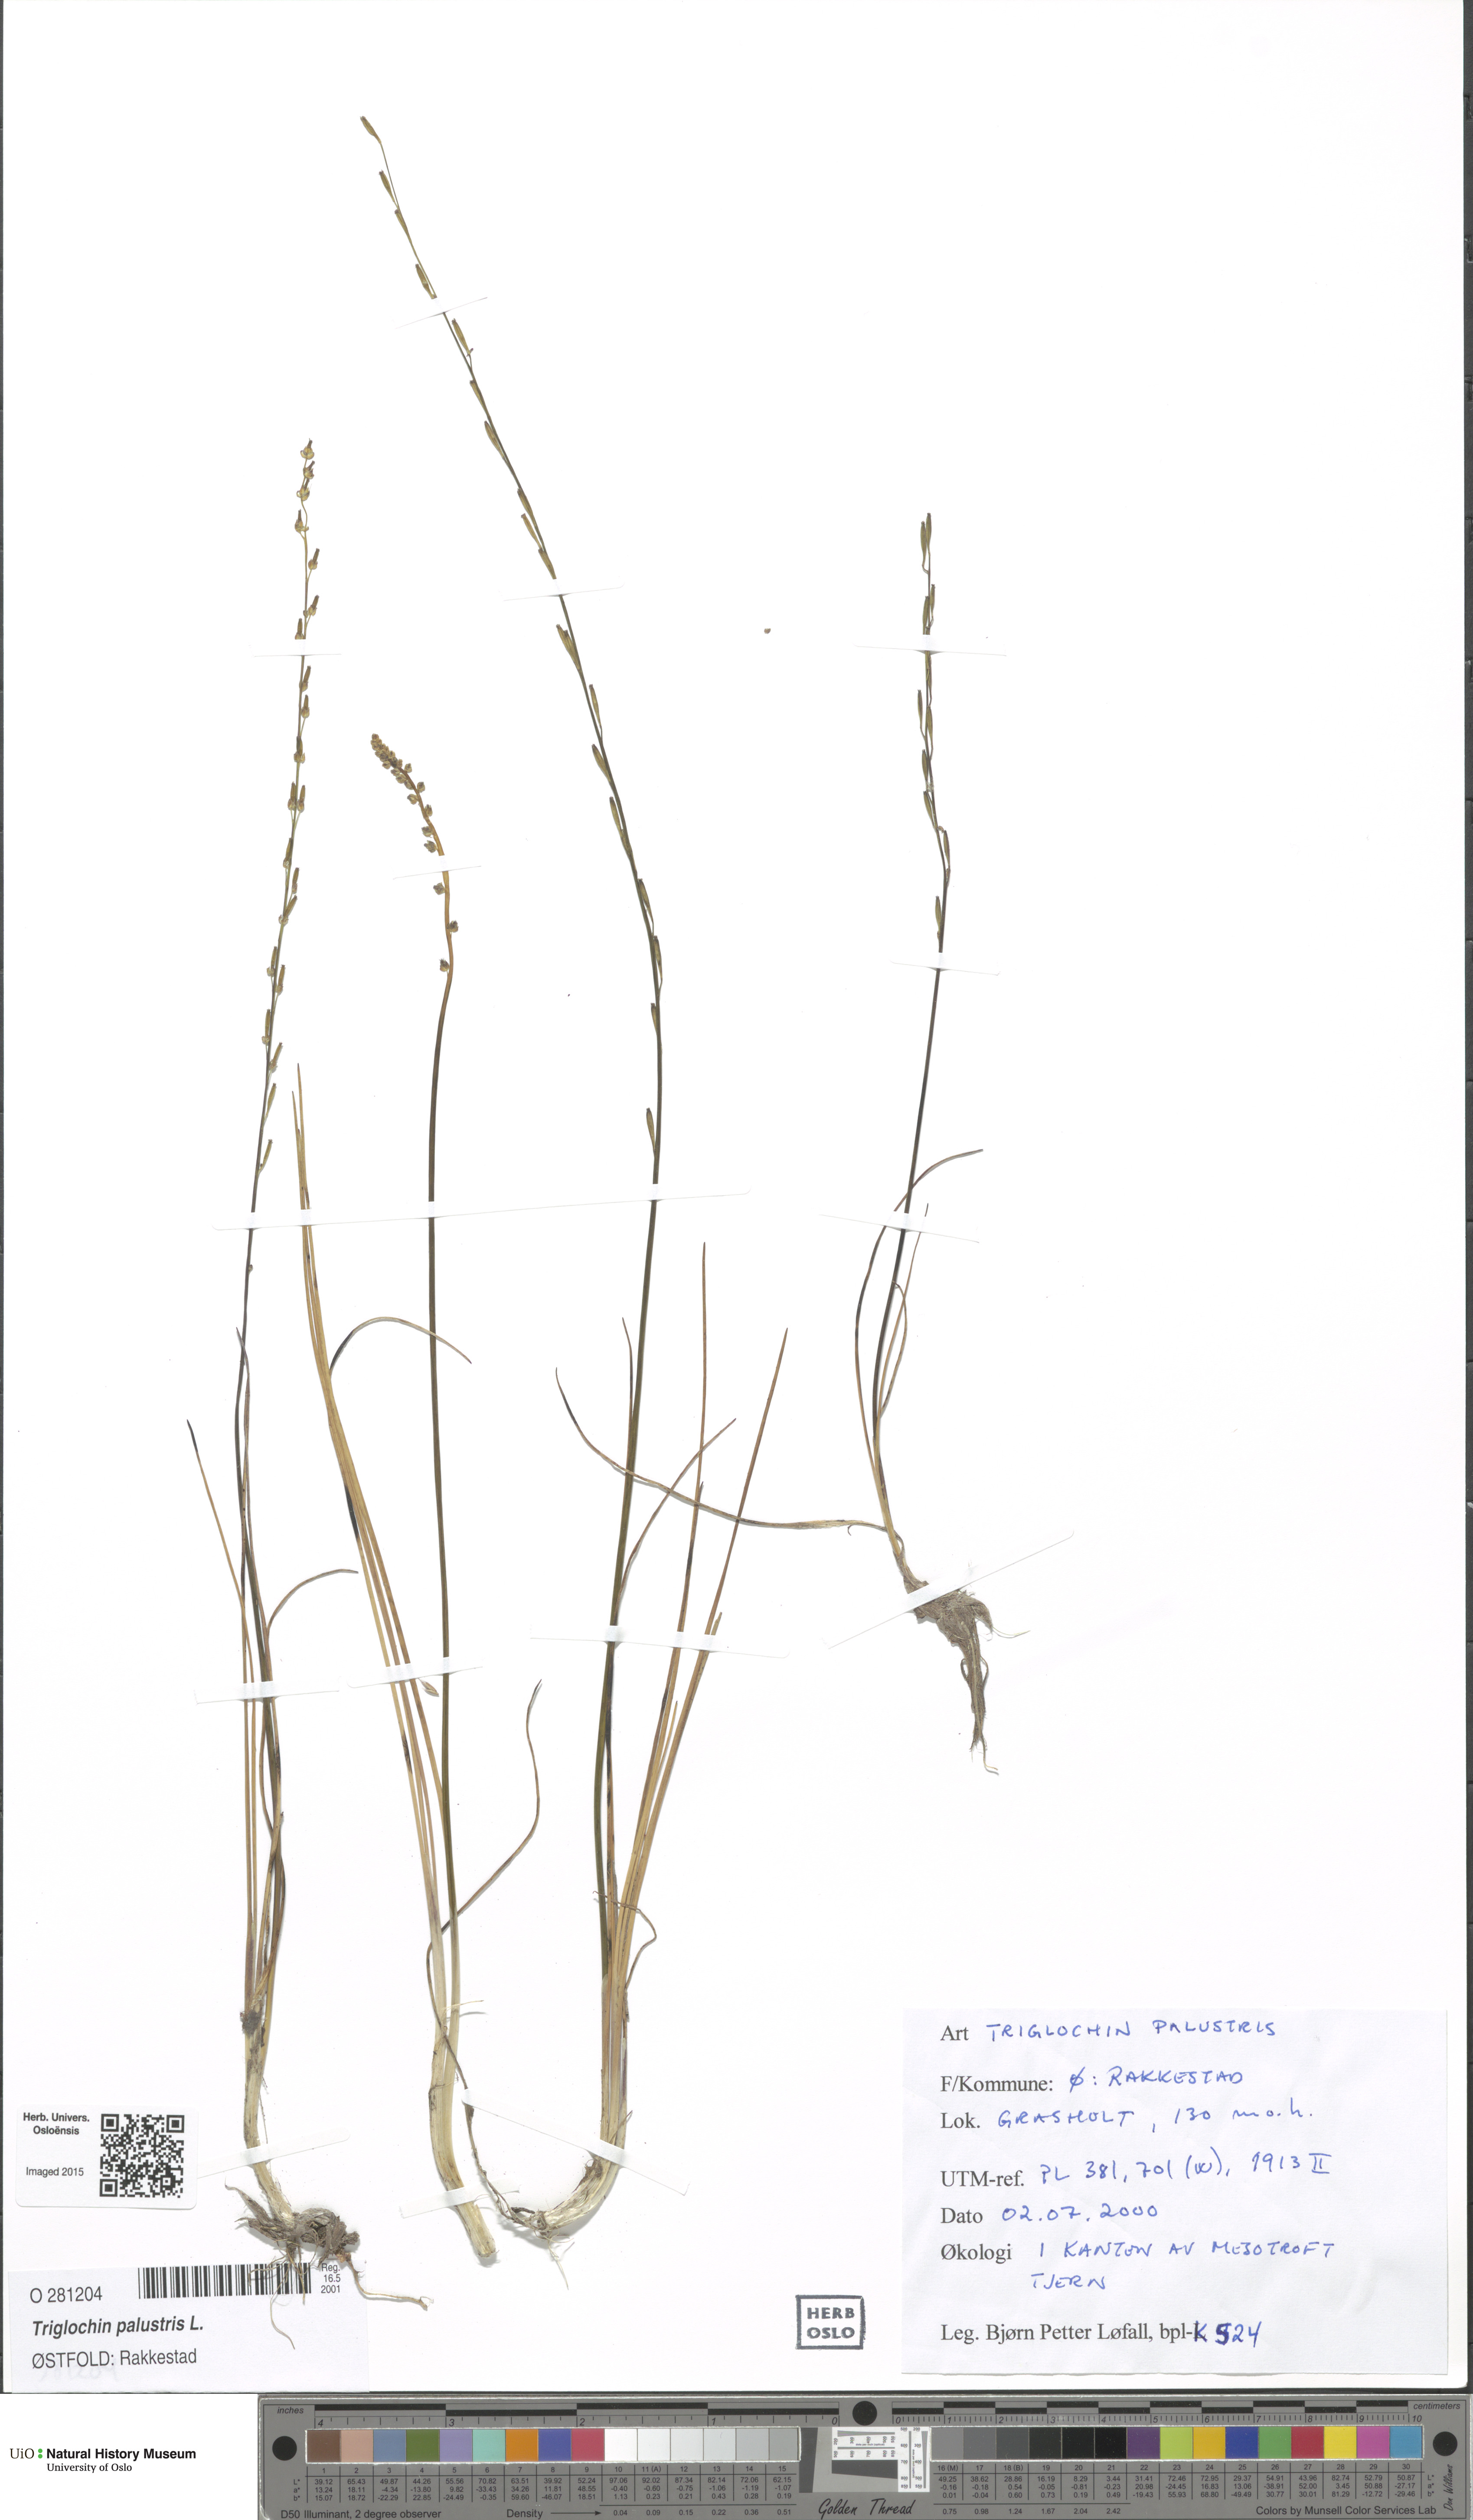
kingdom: Plantae
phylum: Tracheophyta
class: Liliopsida
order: Alismatales
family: Juncaginaceae
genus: Triglochin
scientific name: Triglochin palustris
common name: Marsh arrowgrass
